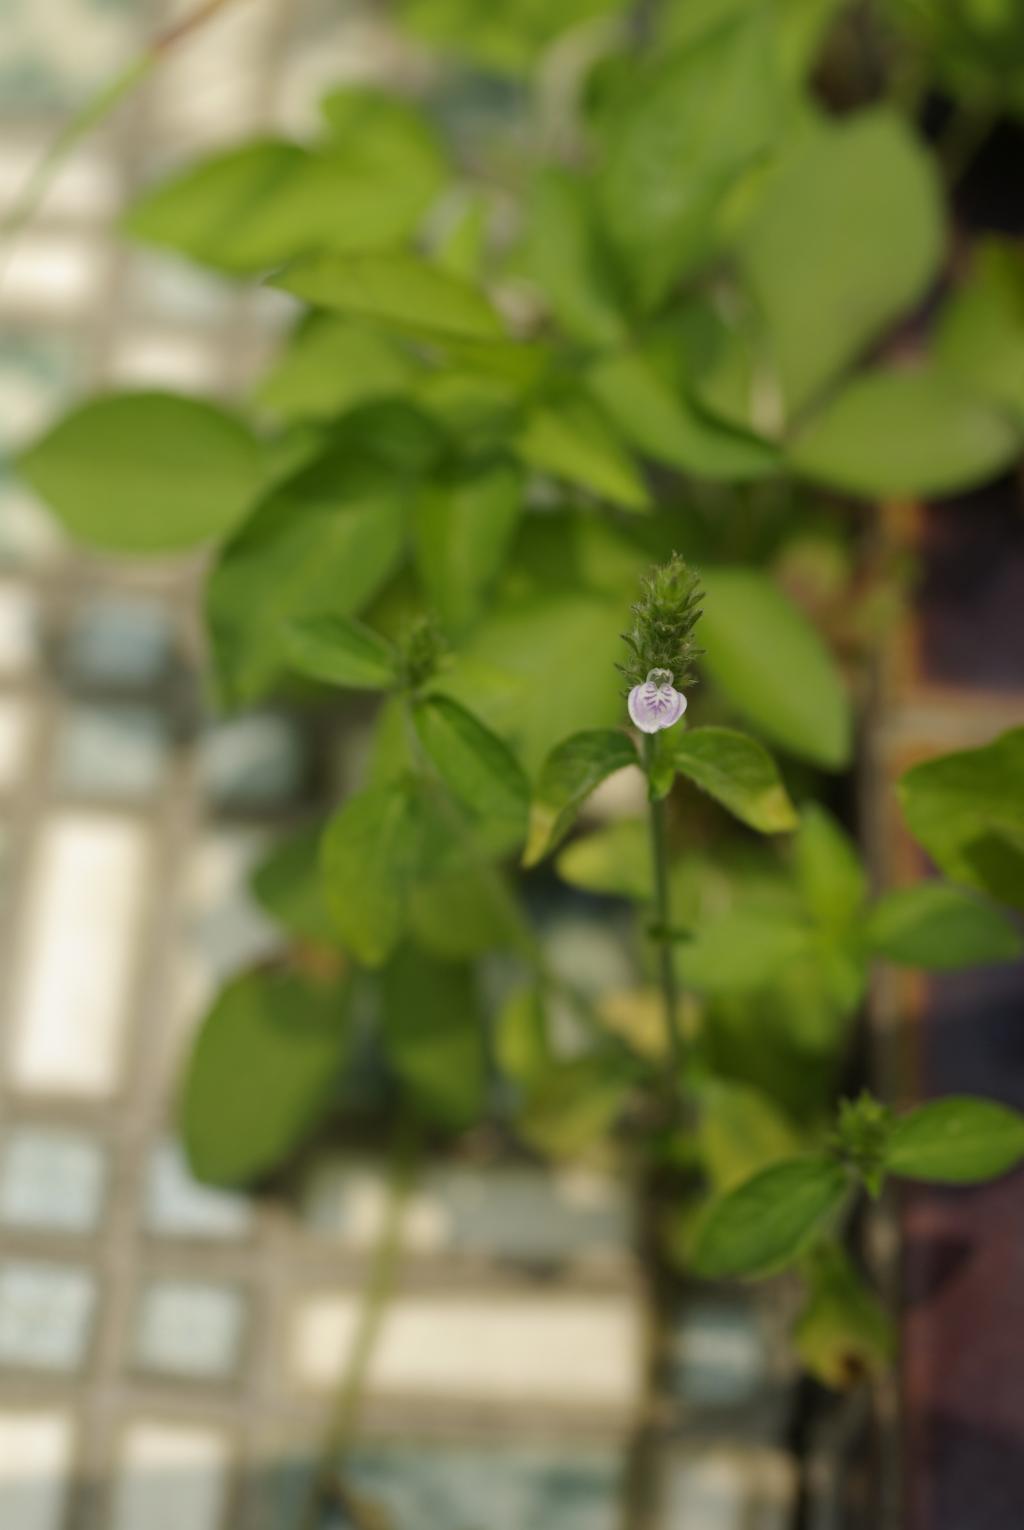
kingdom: Plantae
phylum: Tracheophyta
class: Magnoliopsida
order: Lamiales
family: Acanthaceae
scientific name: Acanthaceae
